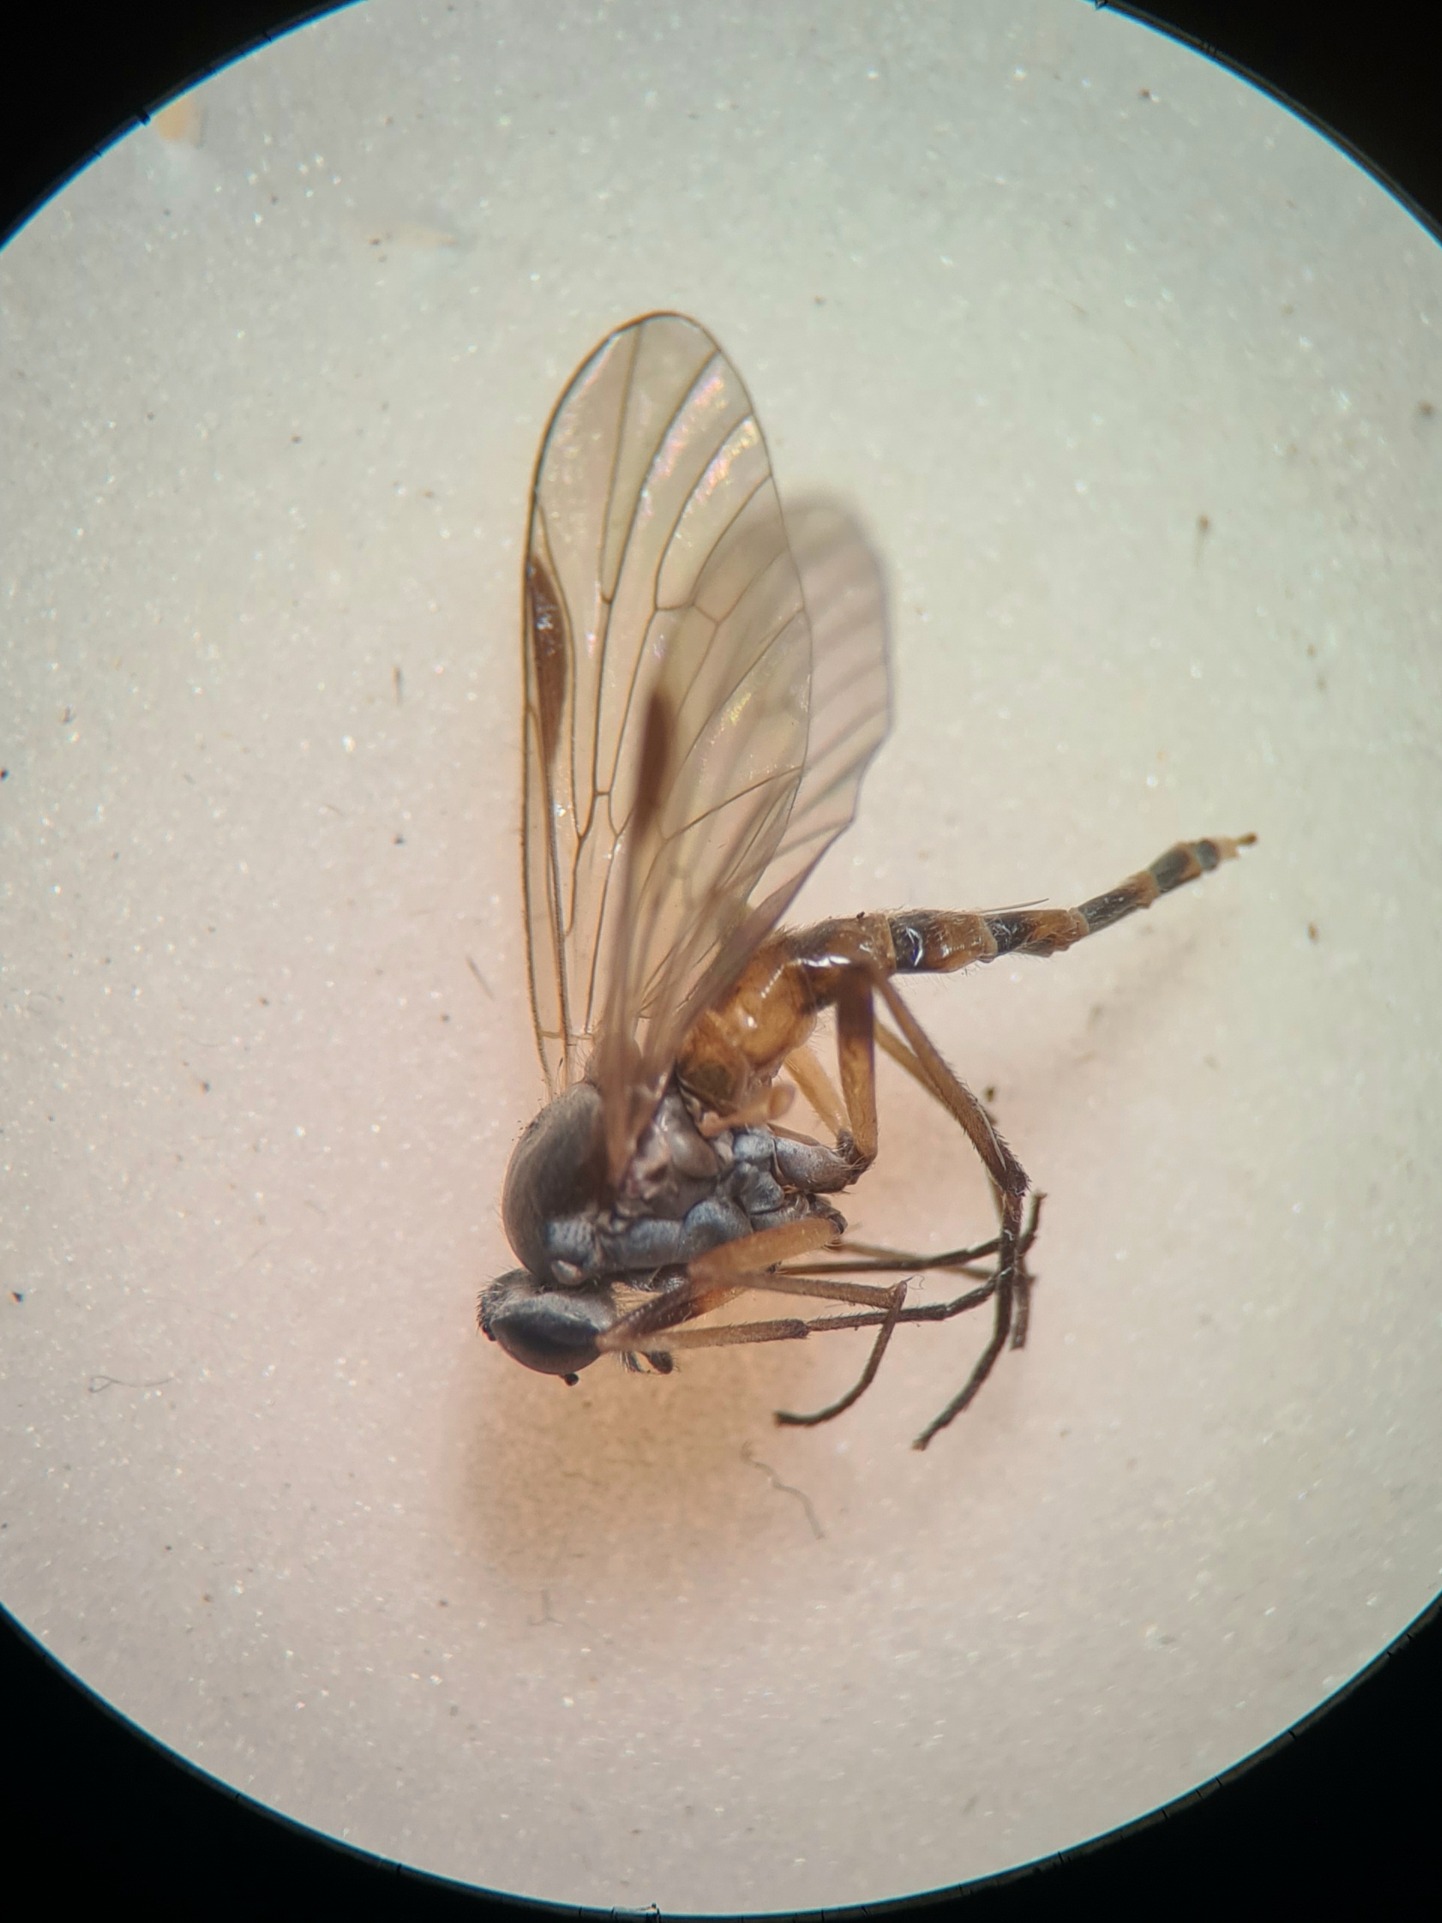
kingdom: Animalia
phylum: Arthropoda
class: Insecta
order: Diptera
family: Rhagionidae
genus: Rhagio
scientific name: Rhagio lineola
